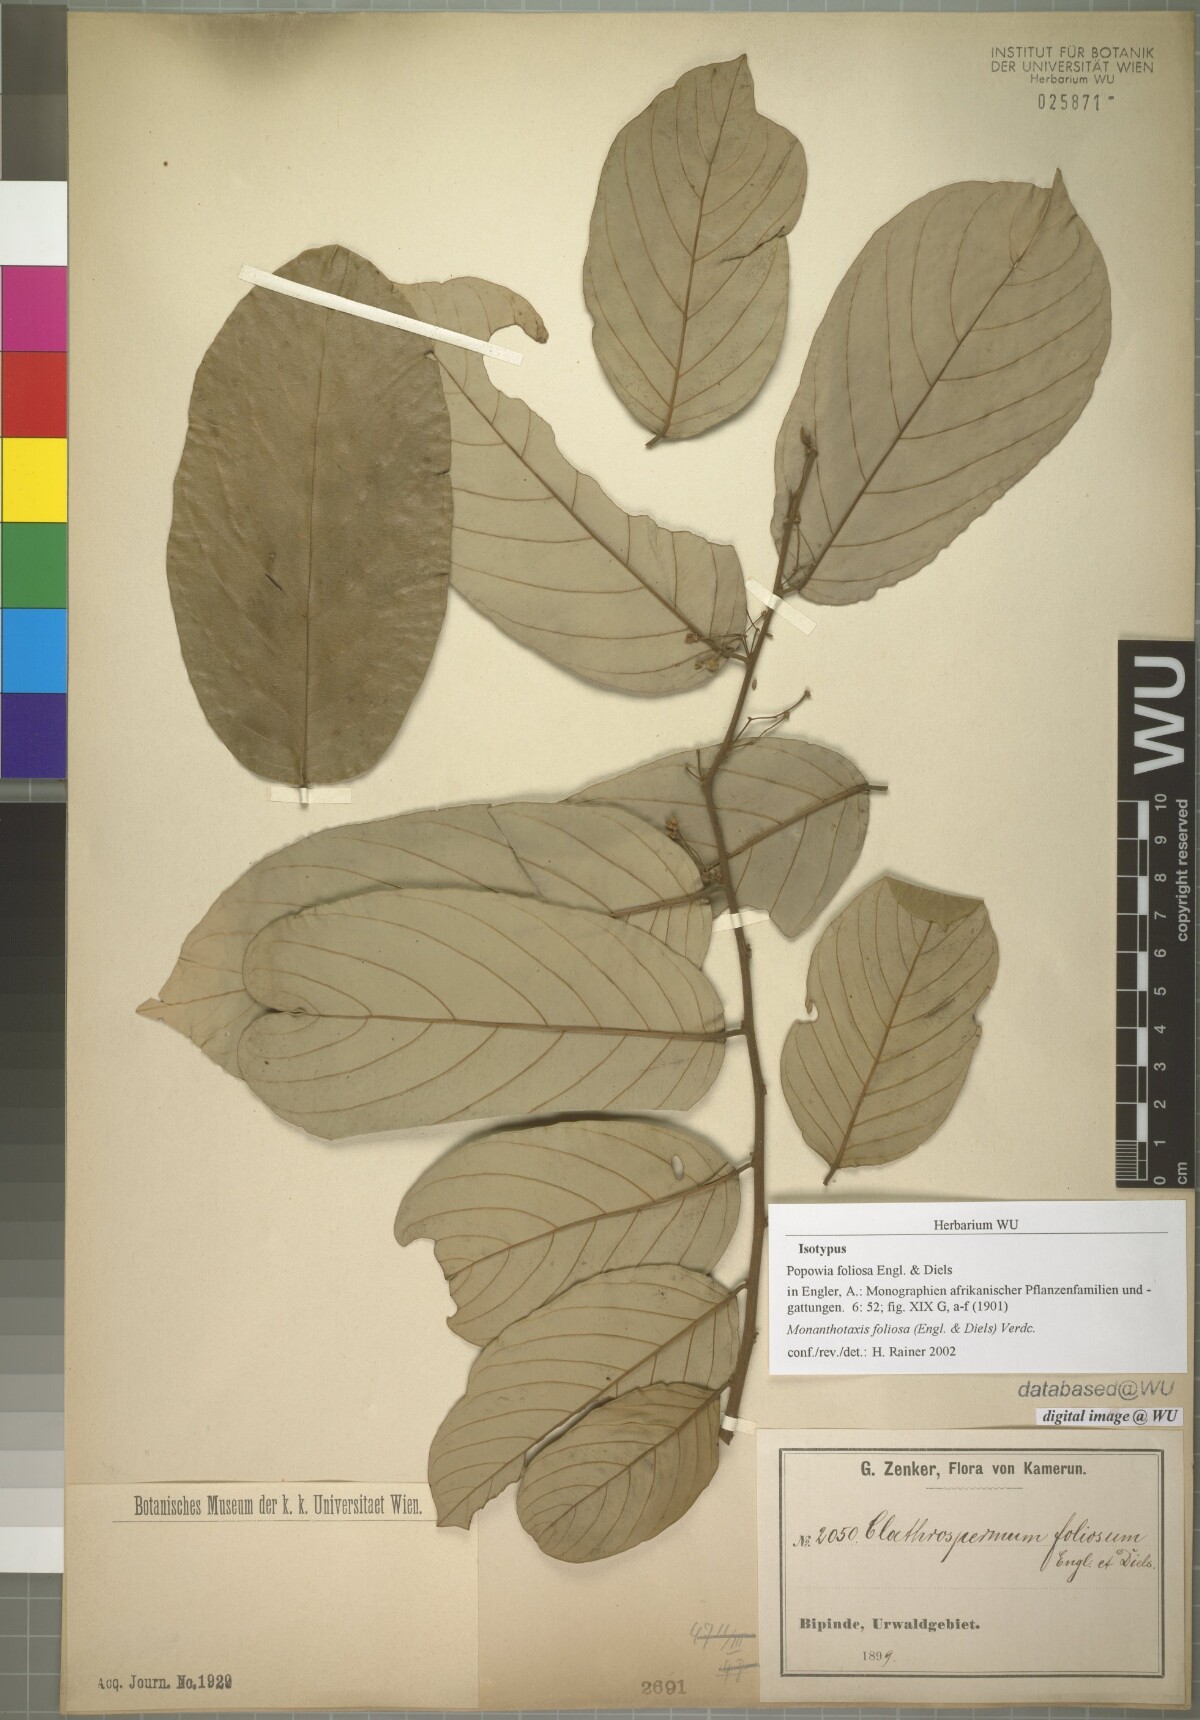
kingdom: Plantae
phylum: Tracheophyta
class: Magnoliopsida
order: Magnoliales
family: Annonaceae
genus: Monanthotaxis
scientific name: Monanthotaxis foliosa
